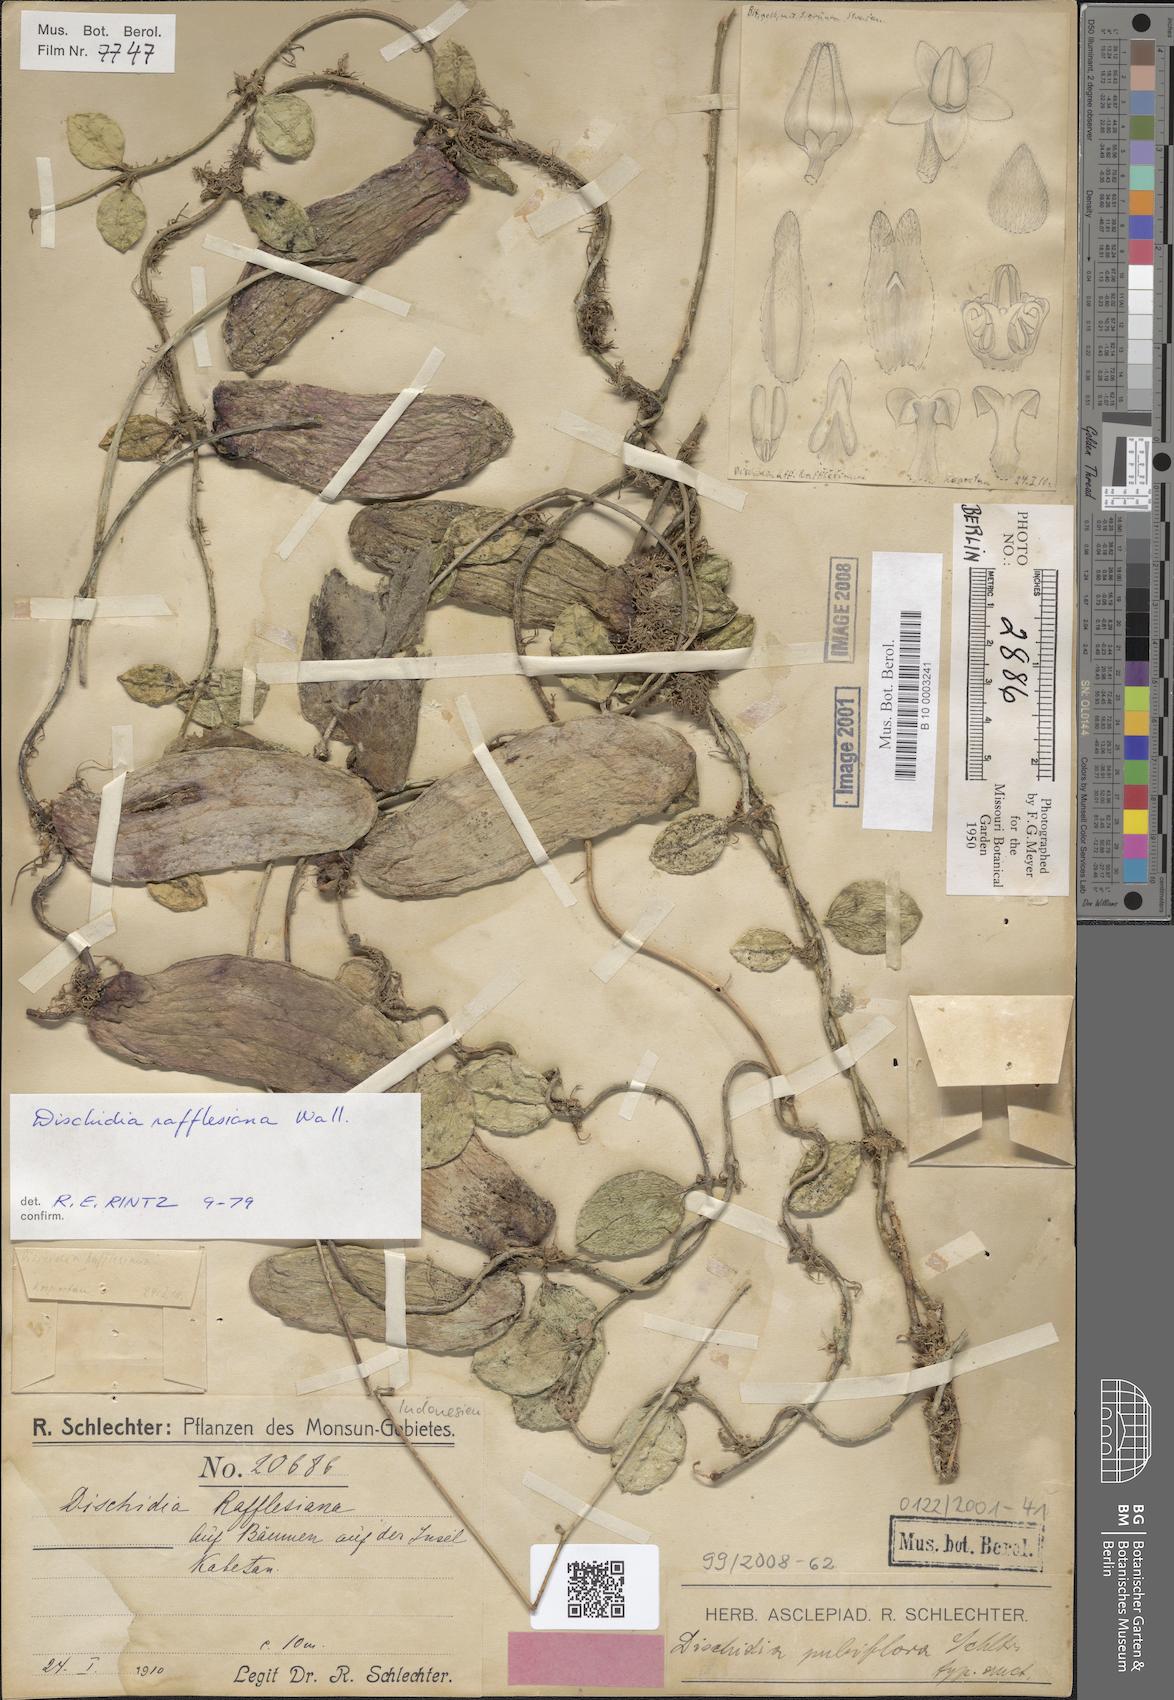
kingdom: Plantae
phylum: Tracheophyta
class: Magnoliopsida
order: Gentianales
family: Apocynaceae
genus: Dischidia
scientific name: Dischidia major
